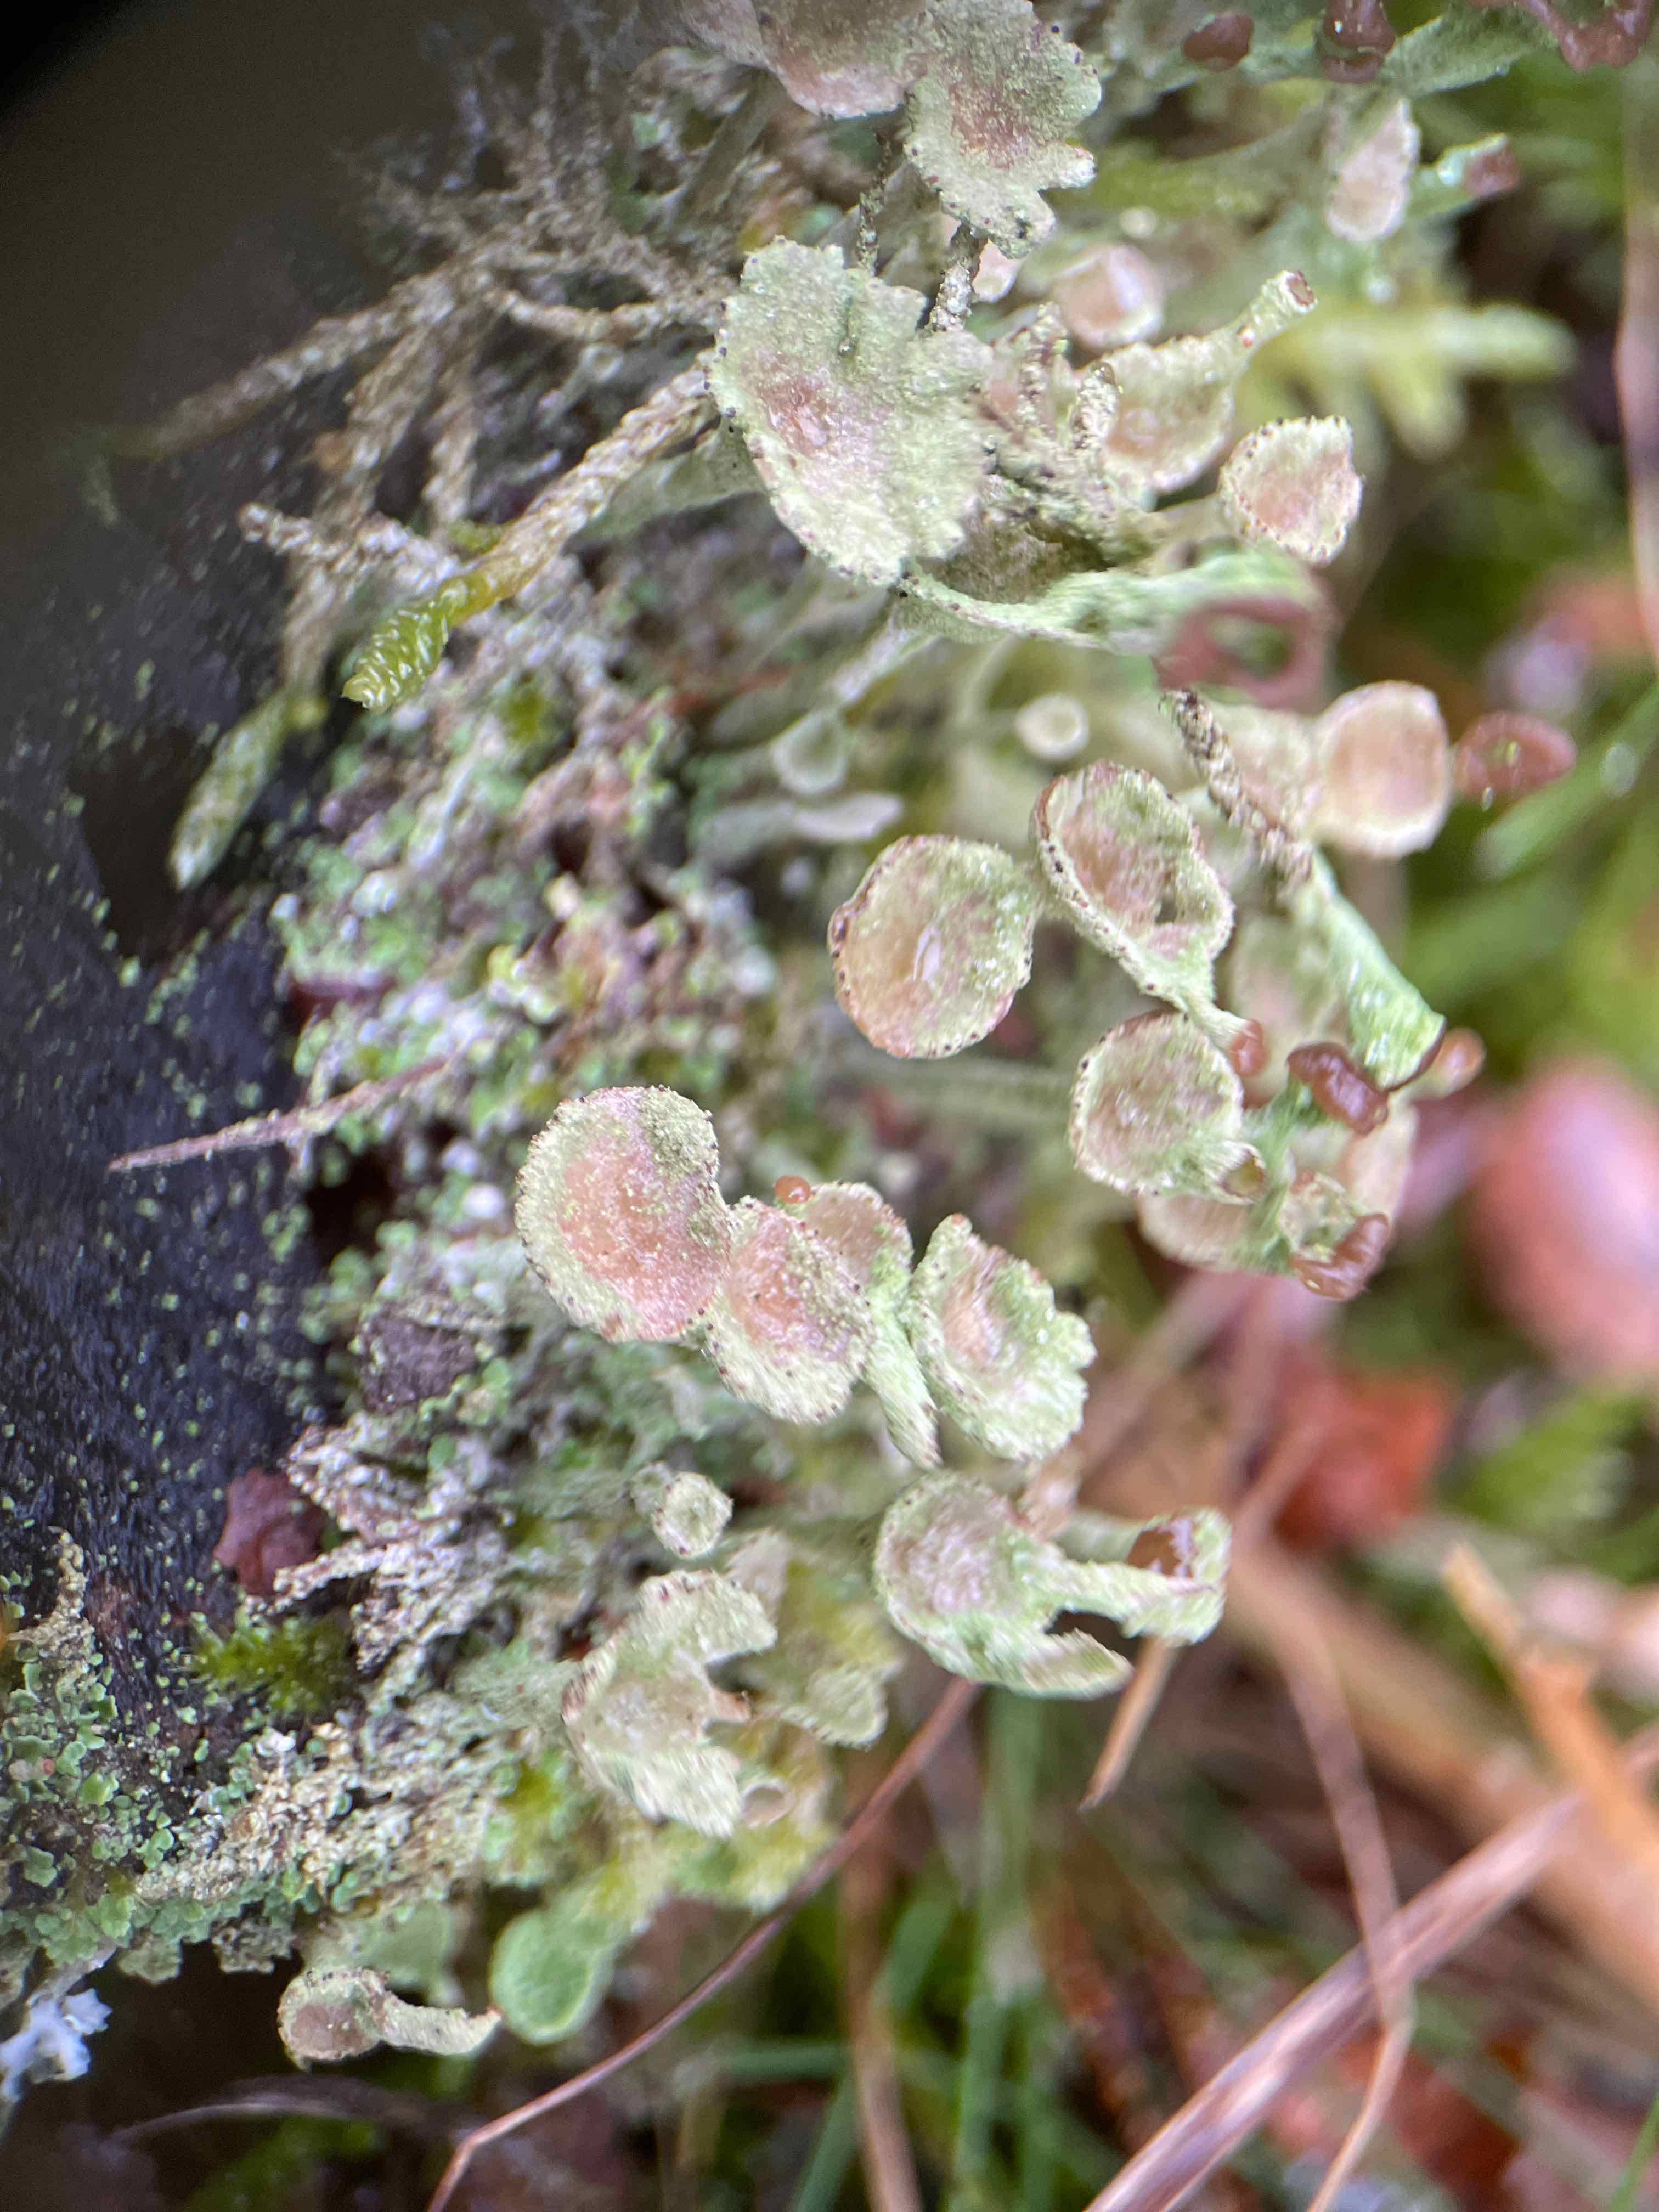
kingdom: Fungi
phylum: Ascomycota
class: Lecanoromycetes
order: Lecanorales
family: Cladoniaceae
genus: Cladonia
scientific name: Cladonia
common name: brungrøn bægerlav
